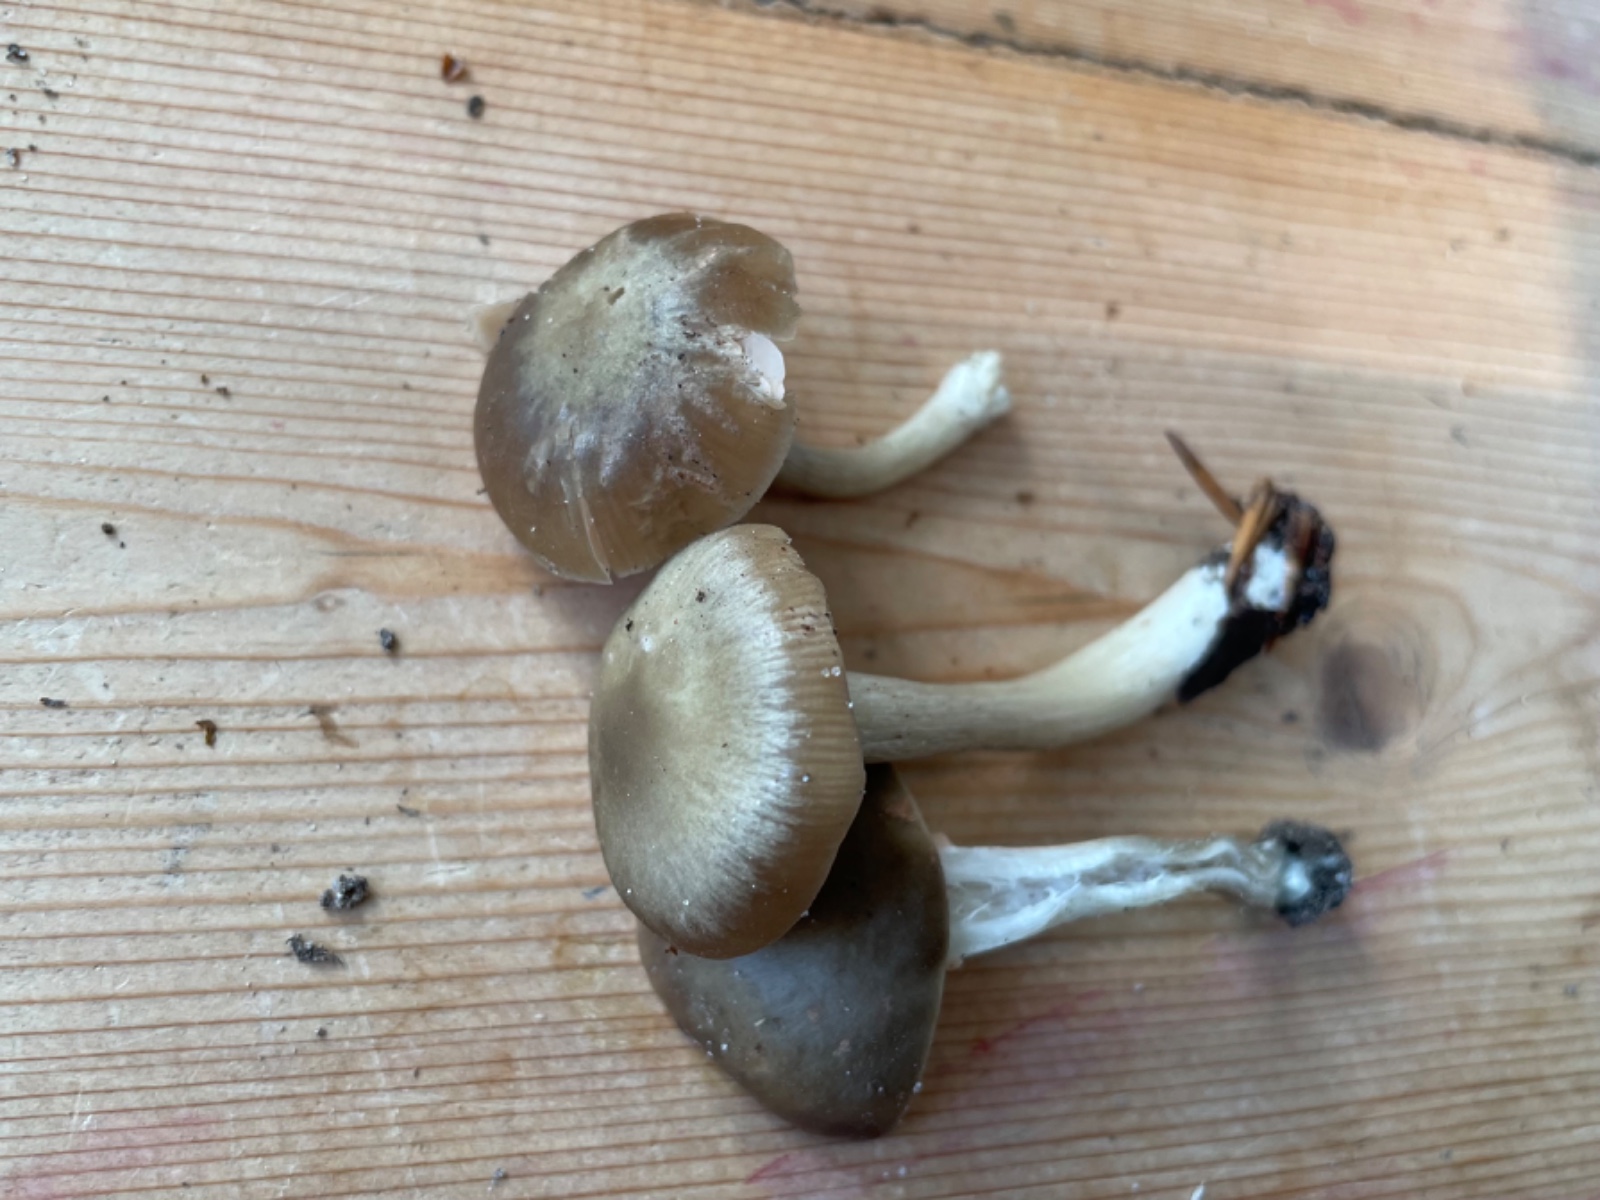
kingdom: Fungi
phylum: Basidiomycota
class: Agaricomycetes
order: Agaricales
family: Entolomataceae
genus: Entoloma
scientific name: Entoloma
